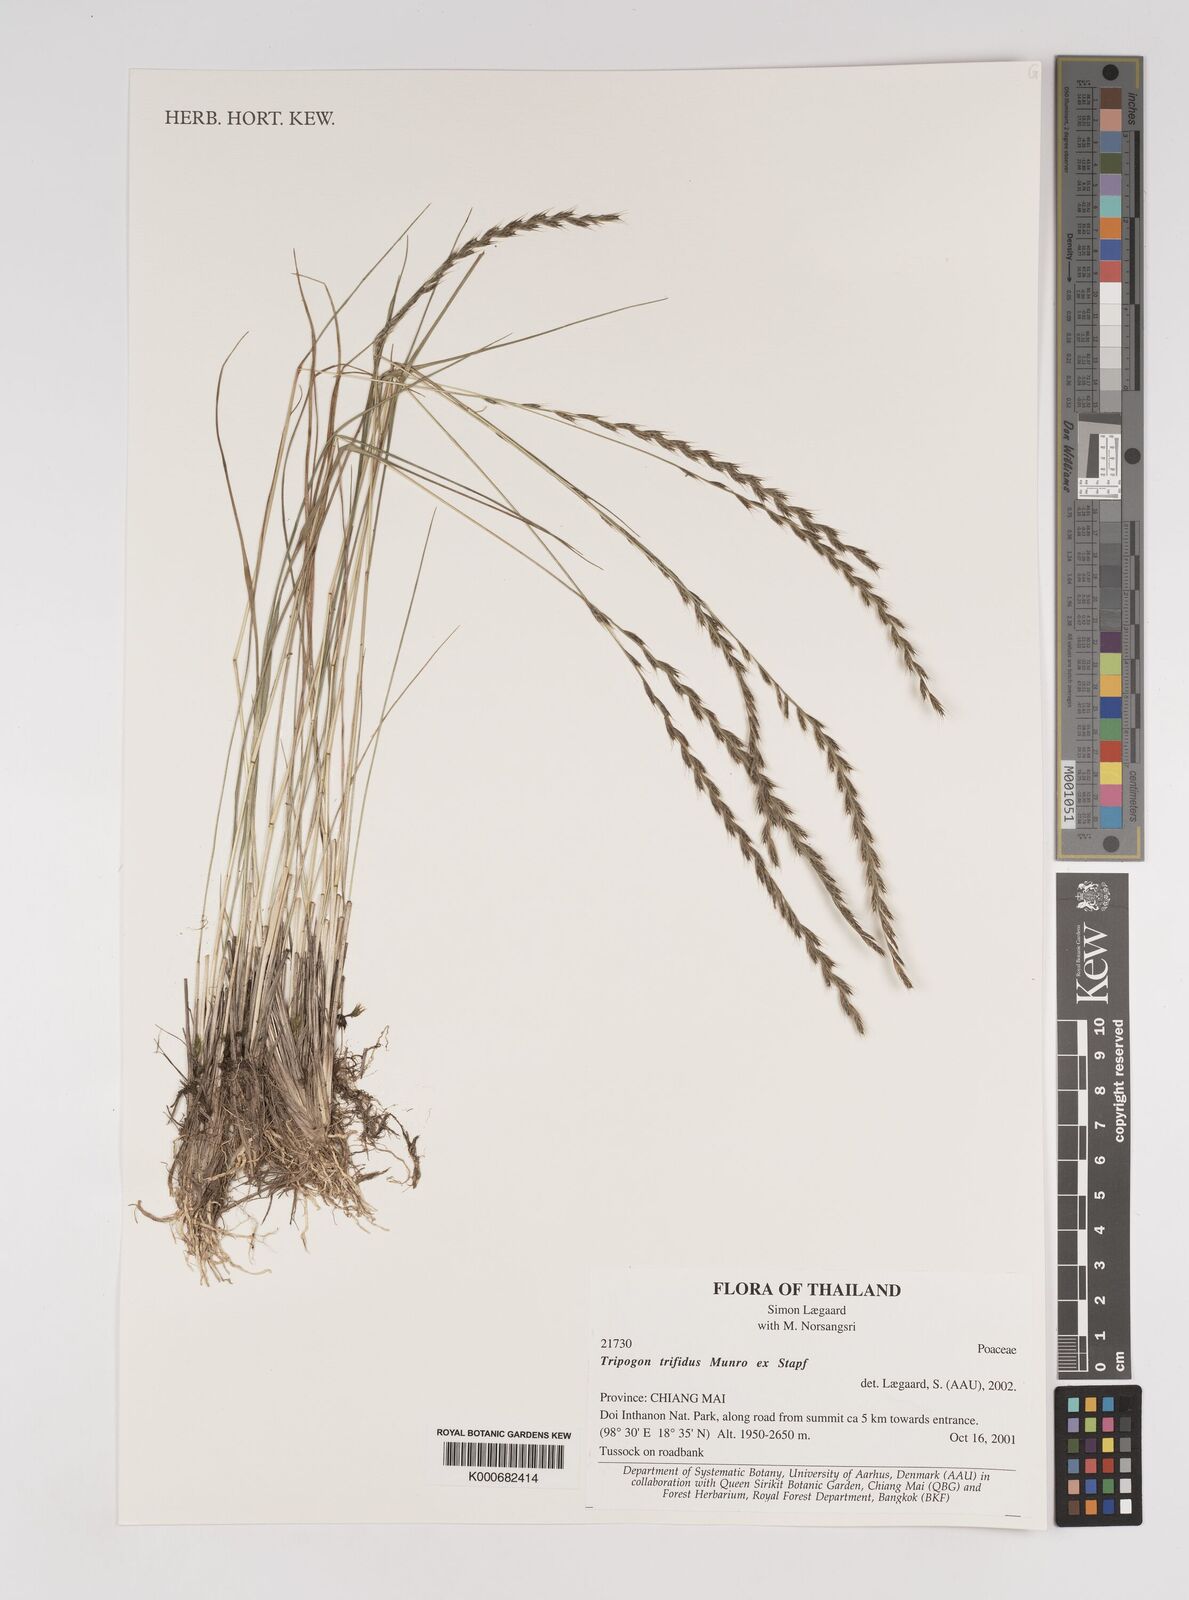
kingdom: Plantae
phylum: Tracheophyta
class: Liliopsida
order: Poales
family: Poaceae
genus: Tripogon
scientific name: Tripogon trifidus
